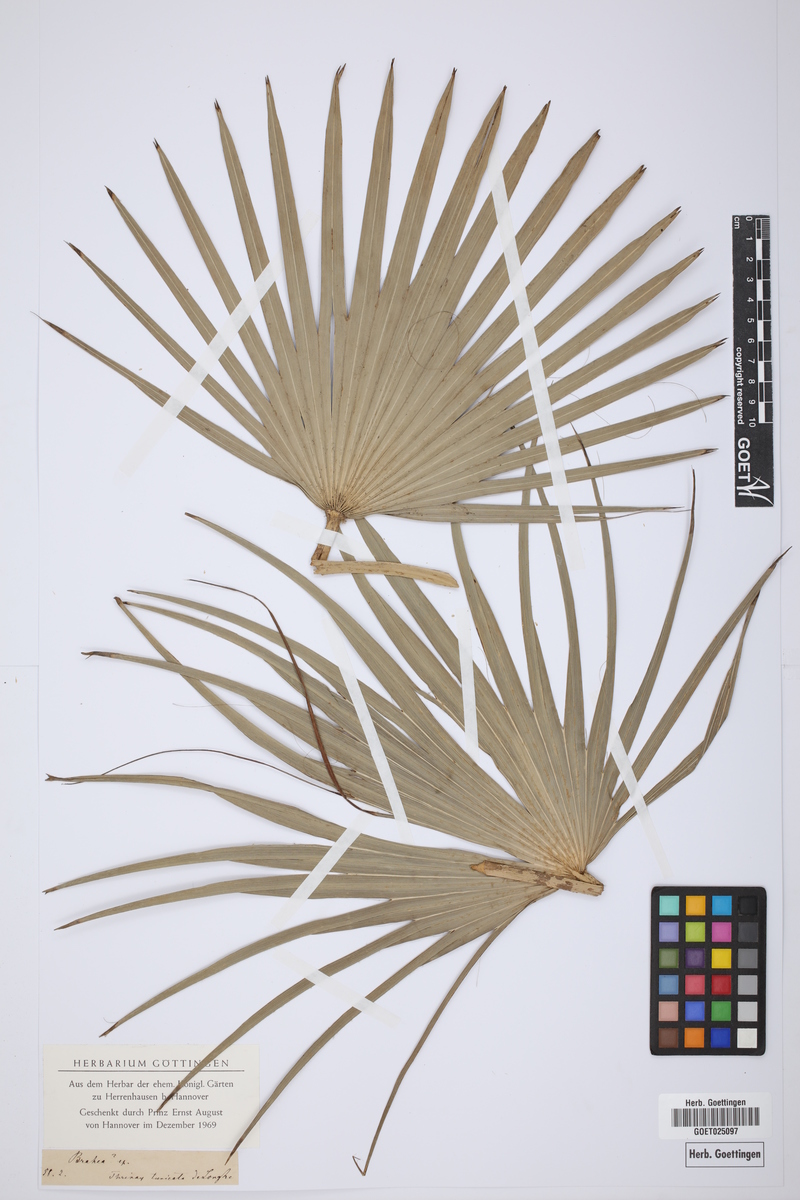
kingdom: Plantae
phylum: Tracheophyta
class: Liliopsida
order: Arecales
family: Arecaceae
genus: Brahea
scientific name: Brahea
